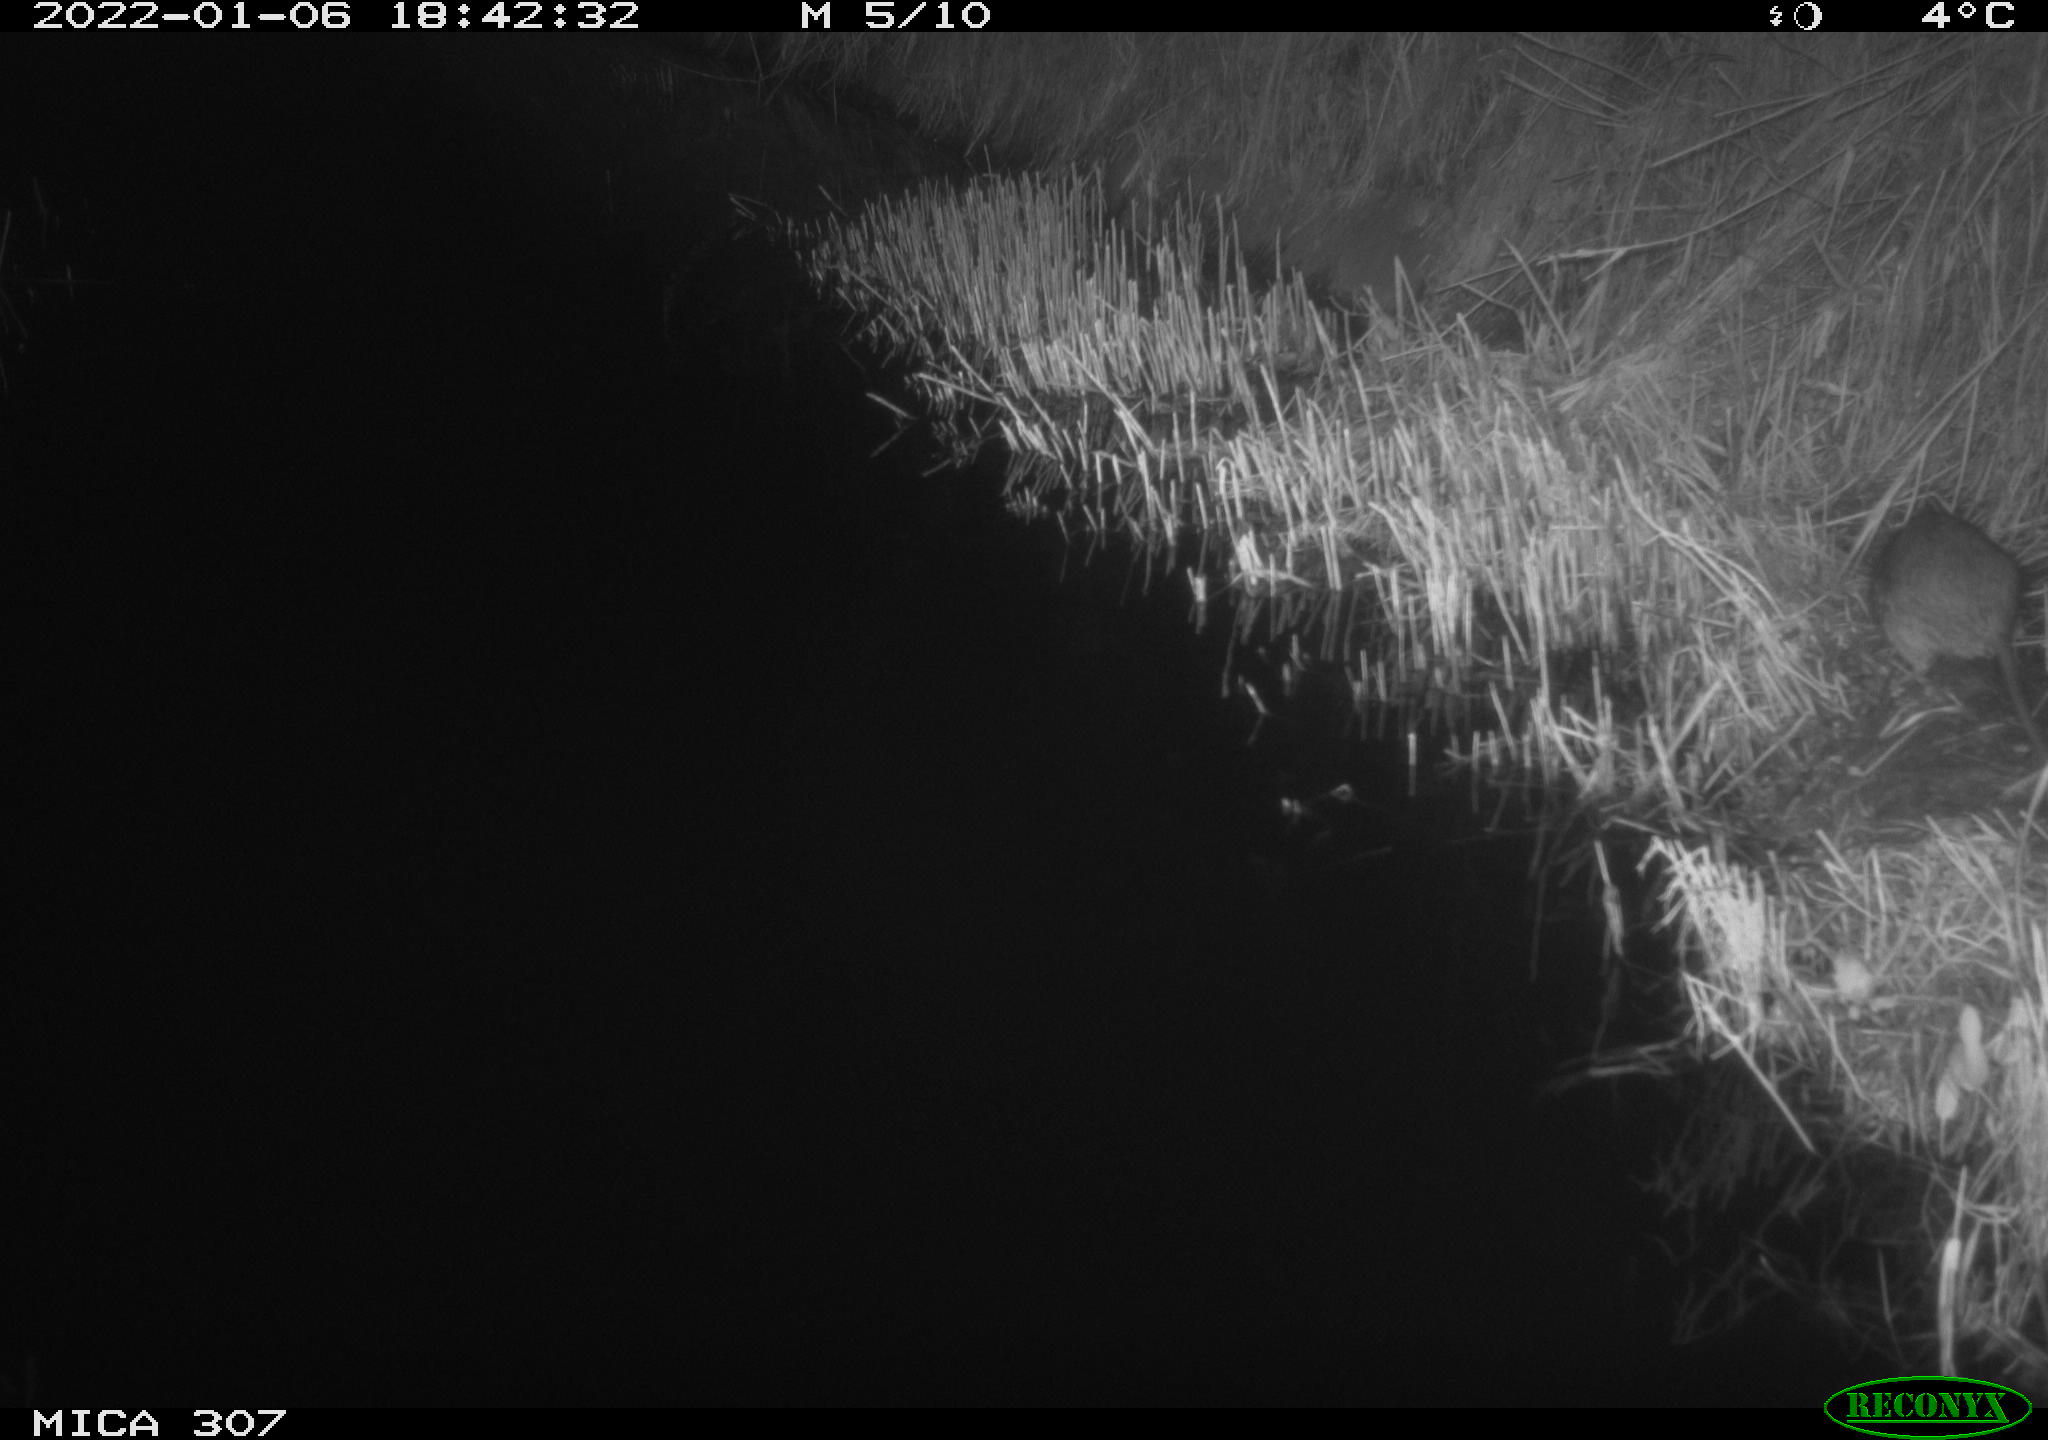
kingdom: Animalia
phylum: Chordata
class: Mammalia
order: Rodentia
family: Muridae
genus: Rattus
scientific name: Rattus norvegicus
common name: Brown rat
